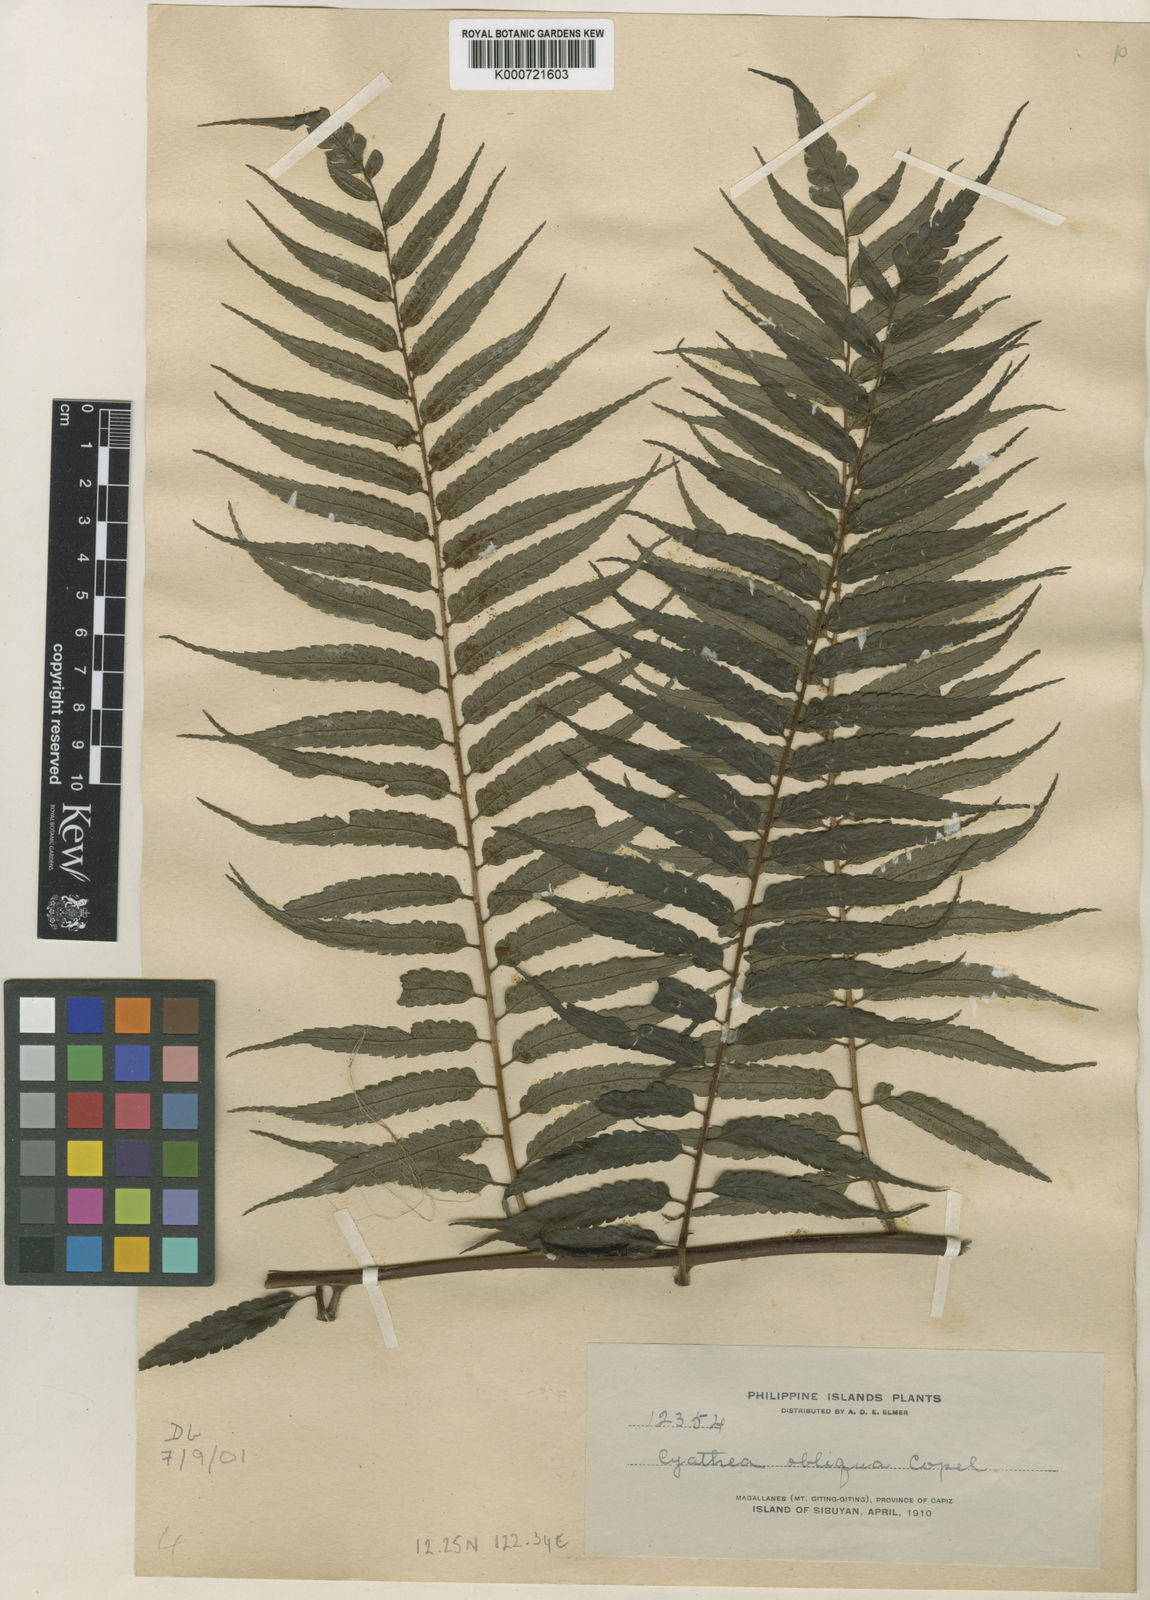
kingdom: Plantae
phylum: Tracheophyta
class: Polypodiopsida
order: Cyatheales
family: Cyatheaceae
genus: Sphaeropteris
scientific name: Sphaeropteris obliqua
